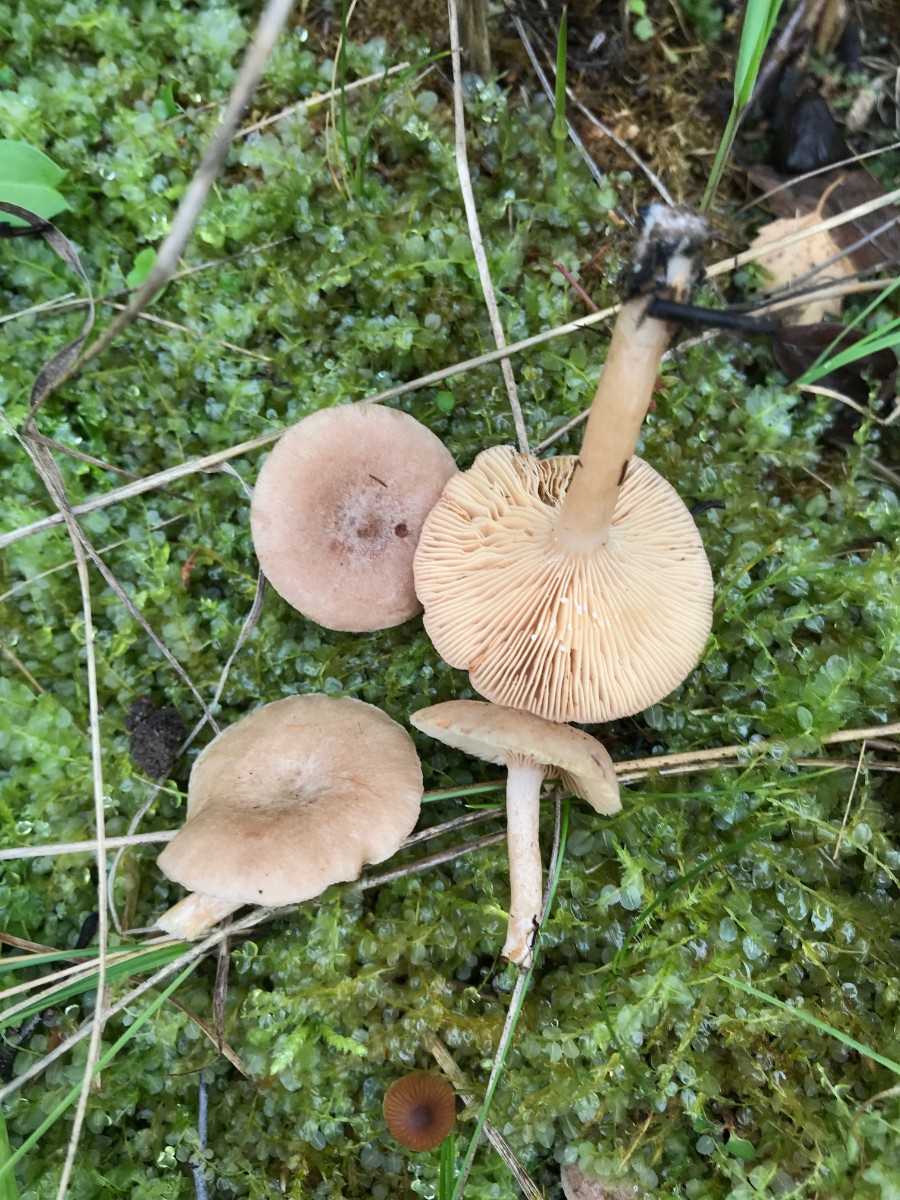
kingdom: Fungi
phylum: Basidiomycota
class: Agaricomycetes
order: Russulales
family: Russulaceae
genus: Lactarius
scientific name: Lactarius glyciosmus
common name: kokos-mælkehat
